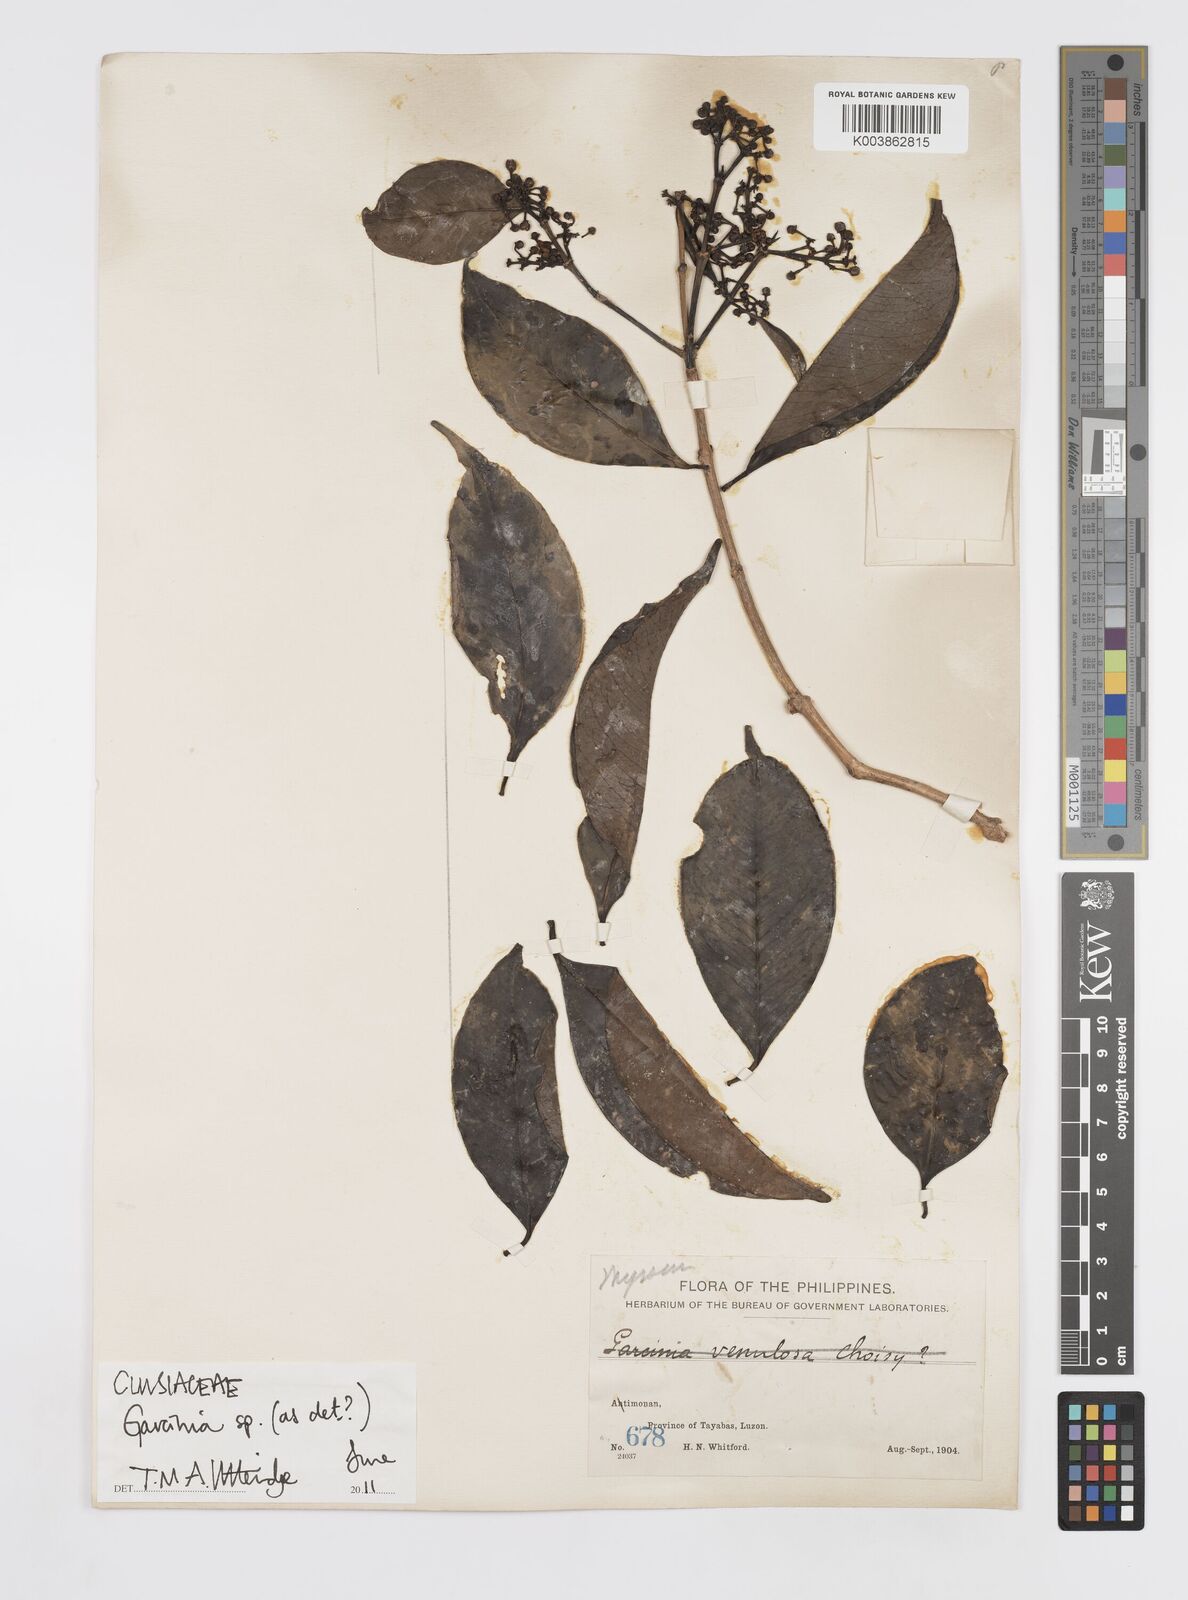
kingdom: Plantae
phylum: Tracheophyta
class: Magnoliopsida
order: Malpighiales
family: Clusiaceae
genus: Garcinia
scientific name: Garcinia
